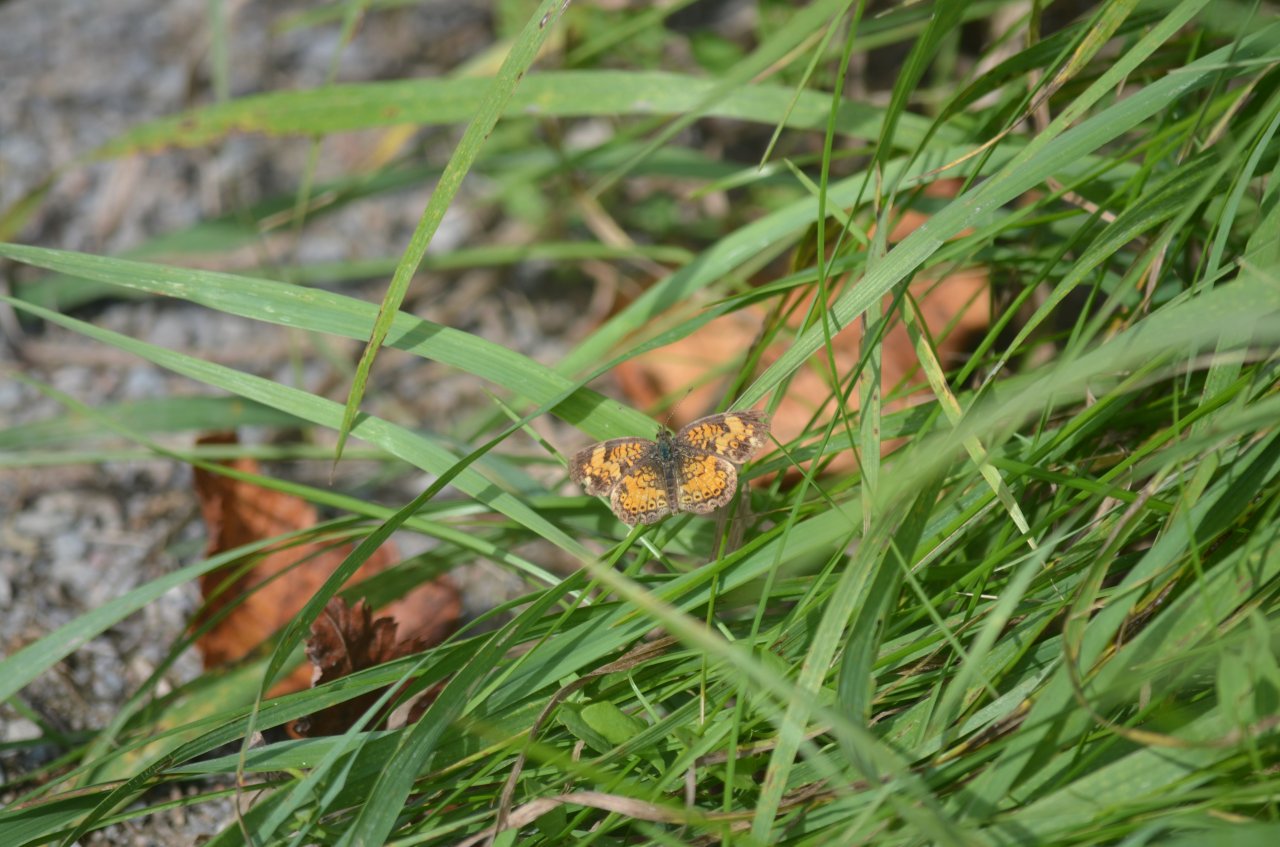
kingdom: Animalia
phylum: Arthropoda
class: Insecta
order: Lepidoptera
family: Nymphalidae
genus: Phyciodes
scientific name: Phyciodes tharos
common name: Northern Crescent
